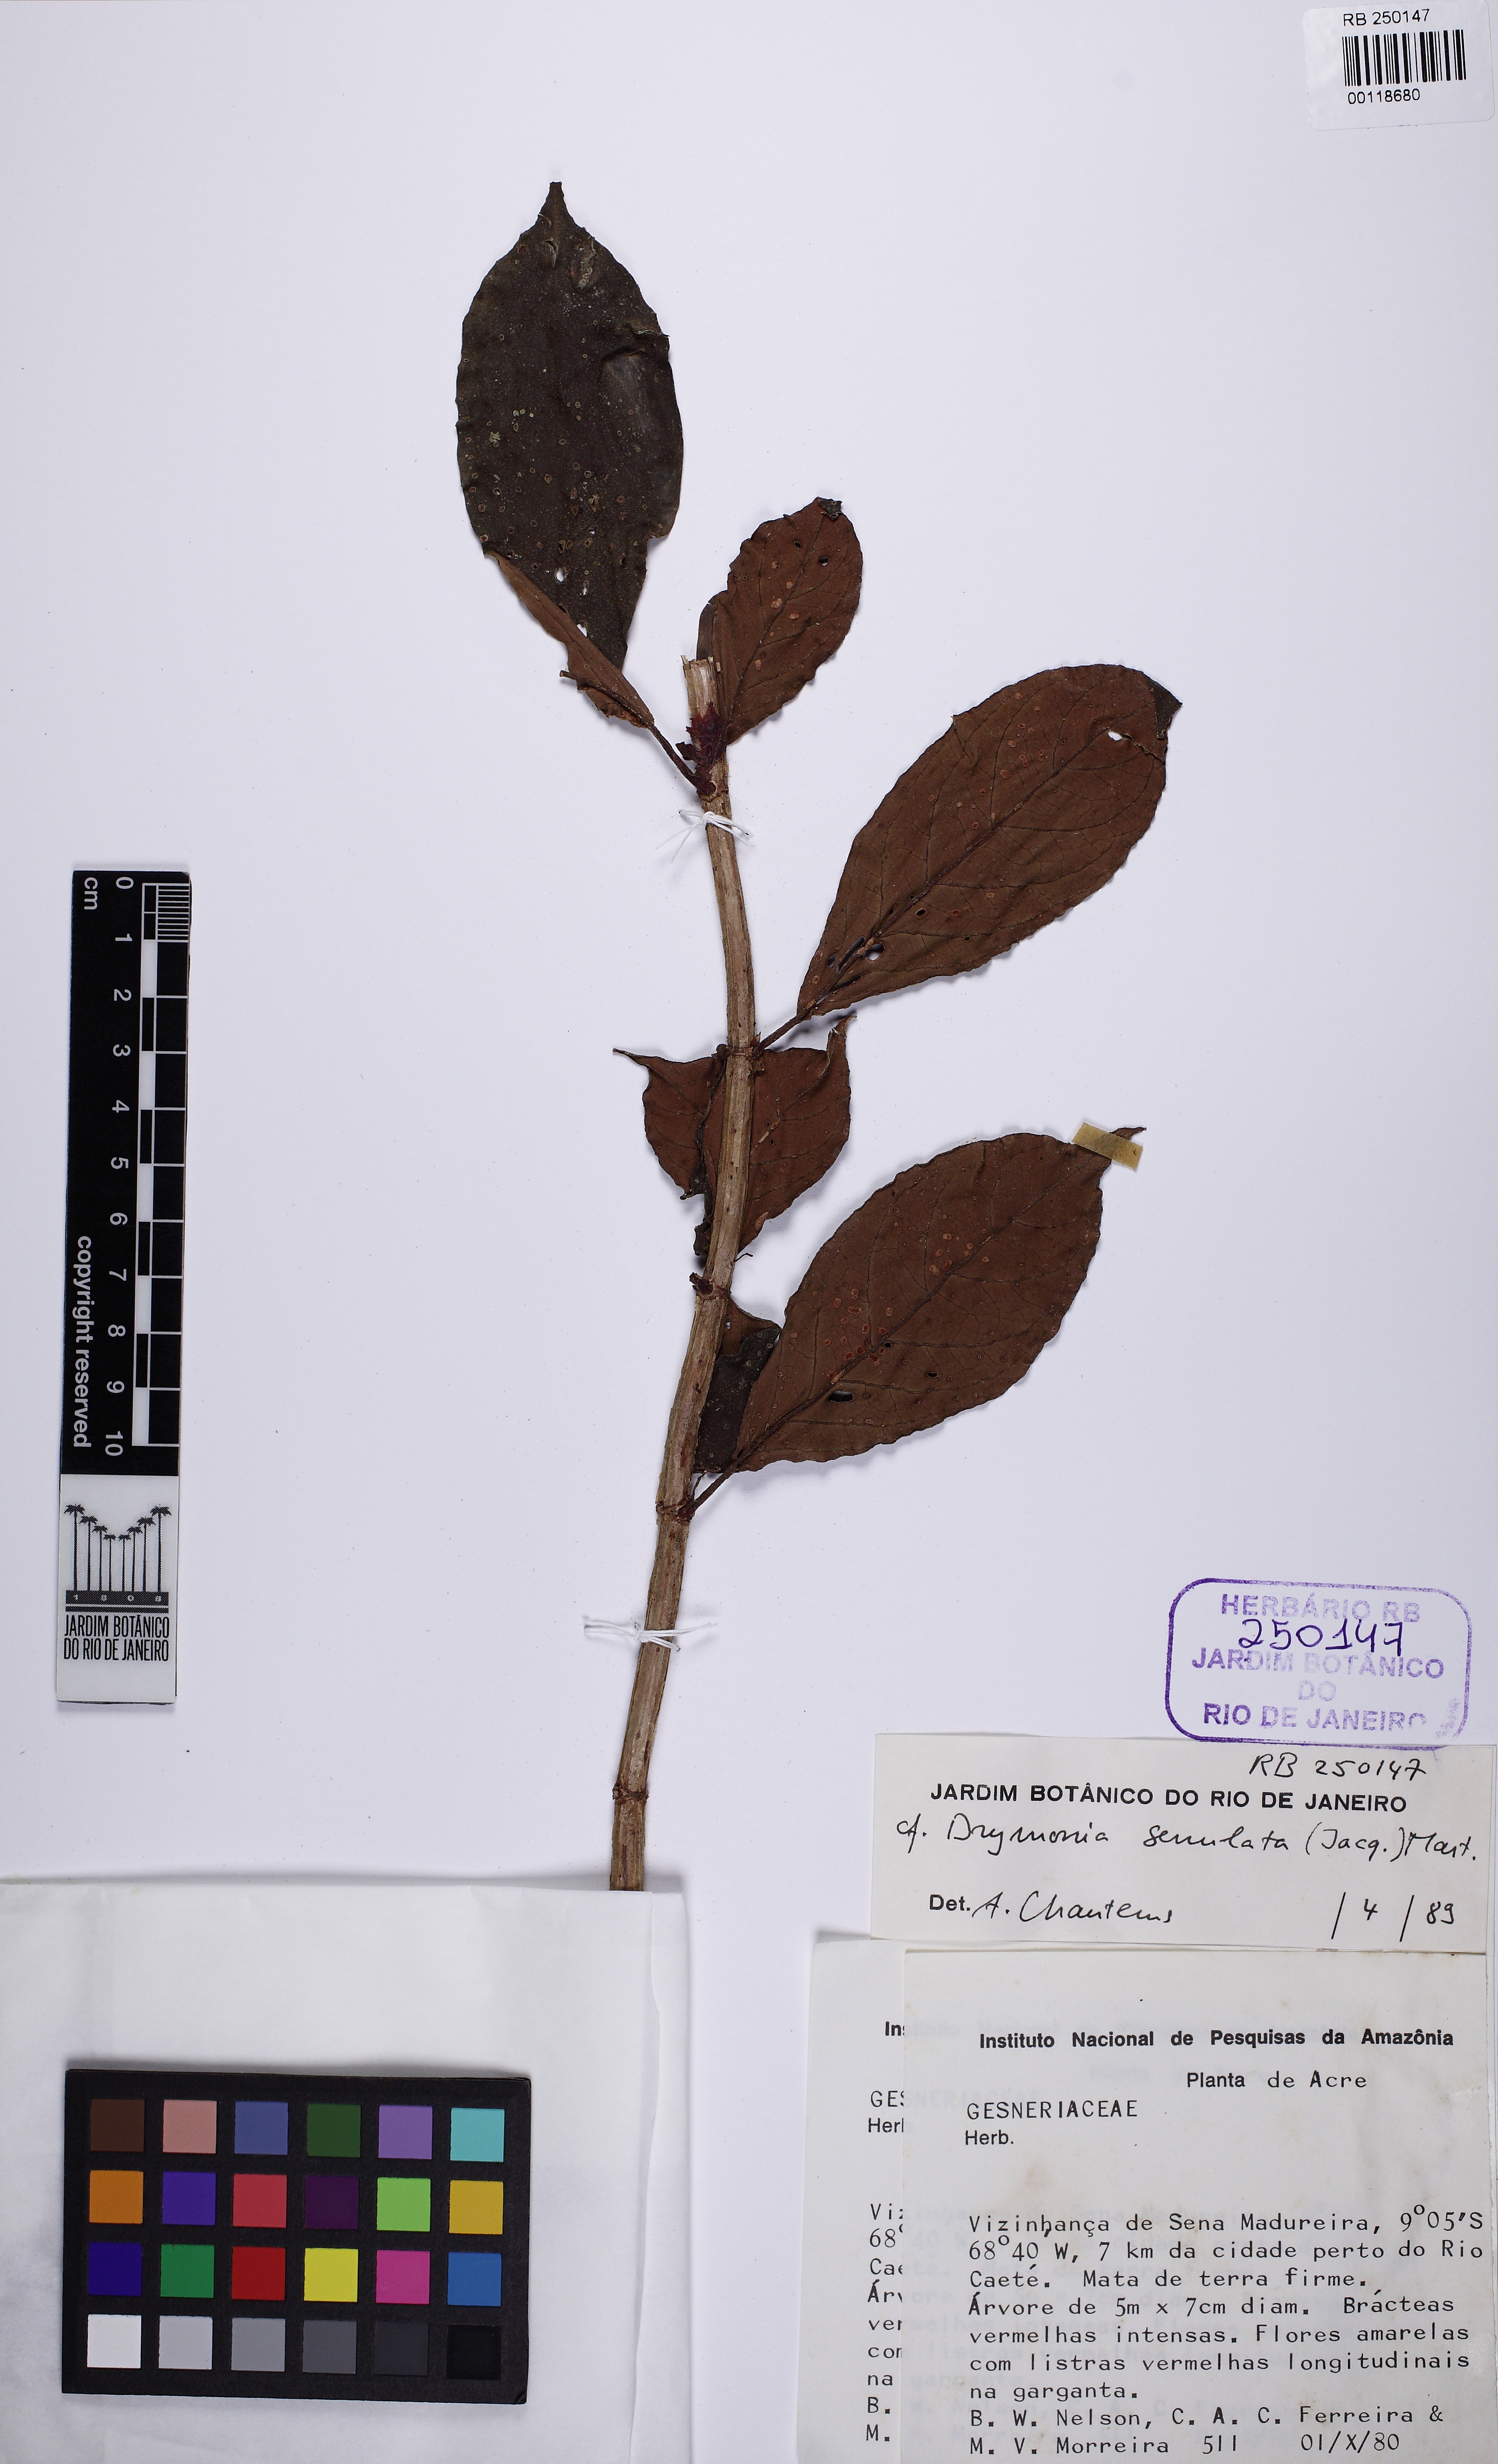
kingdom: Plantae
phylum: Tracheophyta
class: Magnoliopsida
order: Lamiales
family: Gesneriaceae
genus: Drymonia
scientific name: Drymonia serrulata
